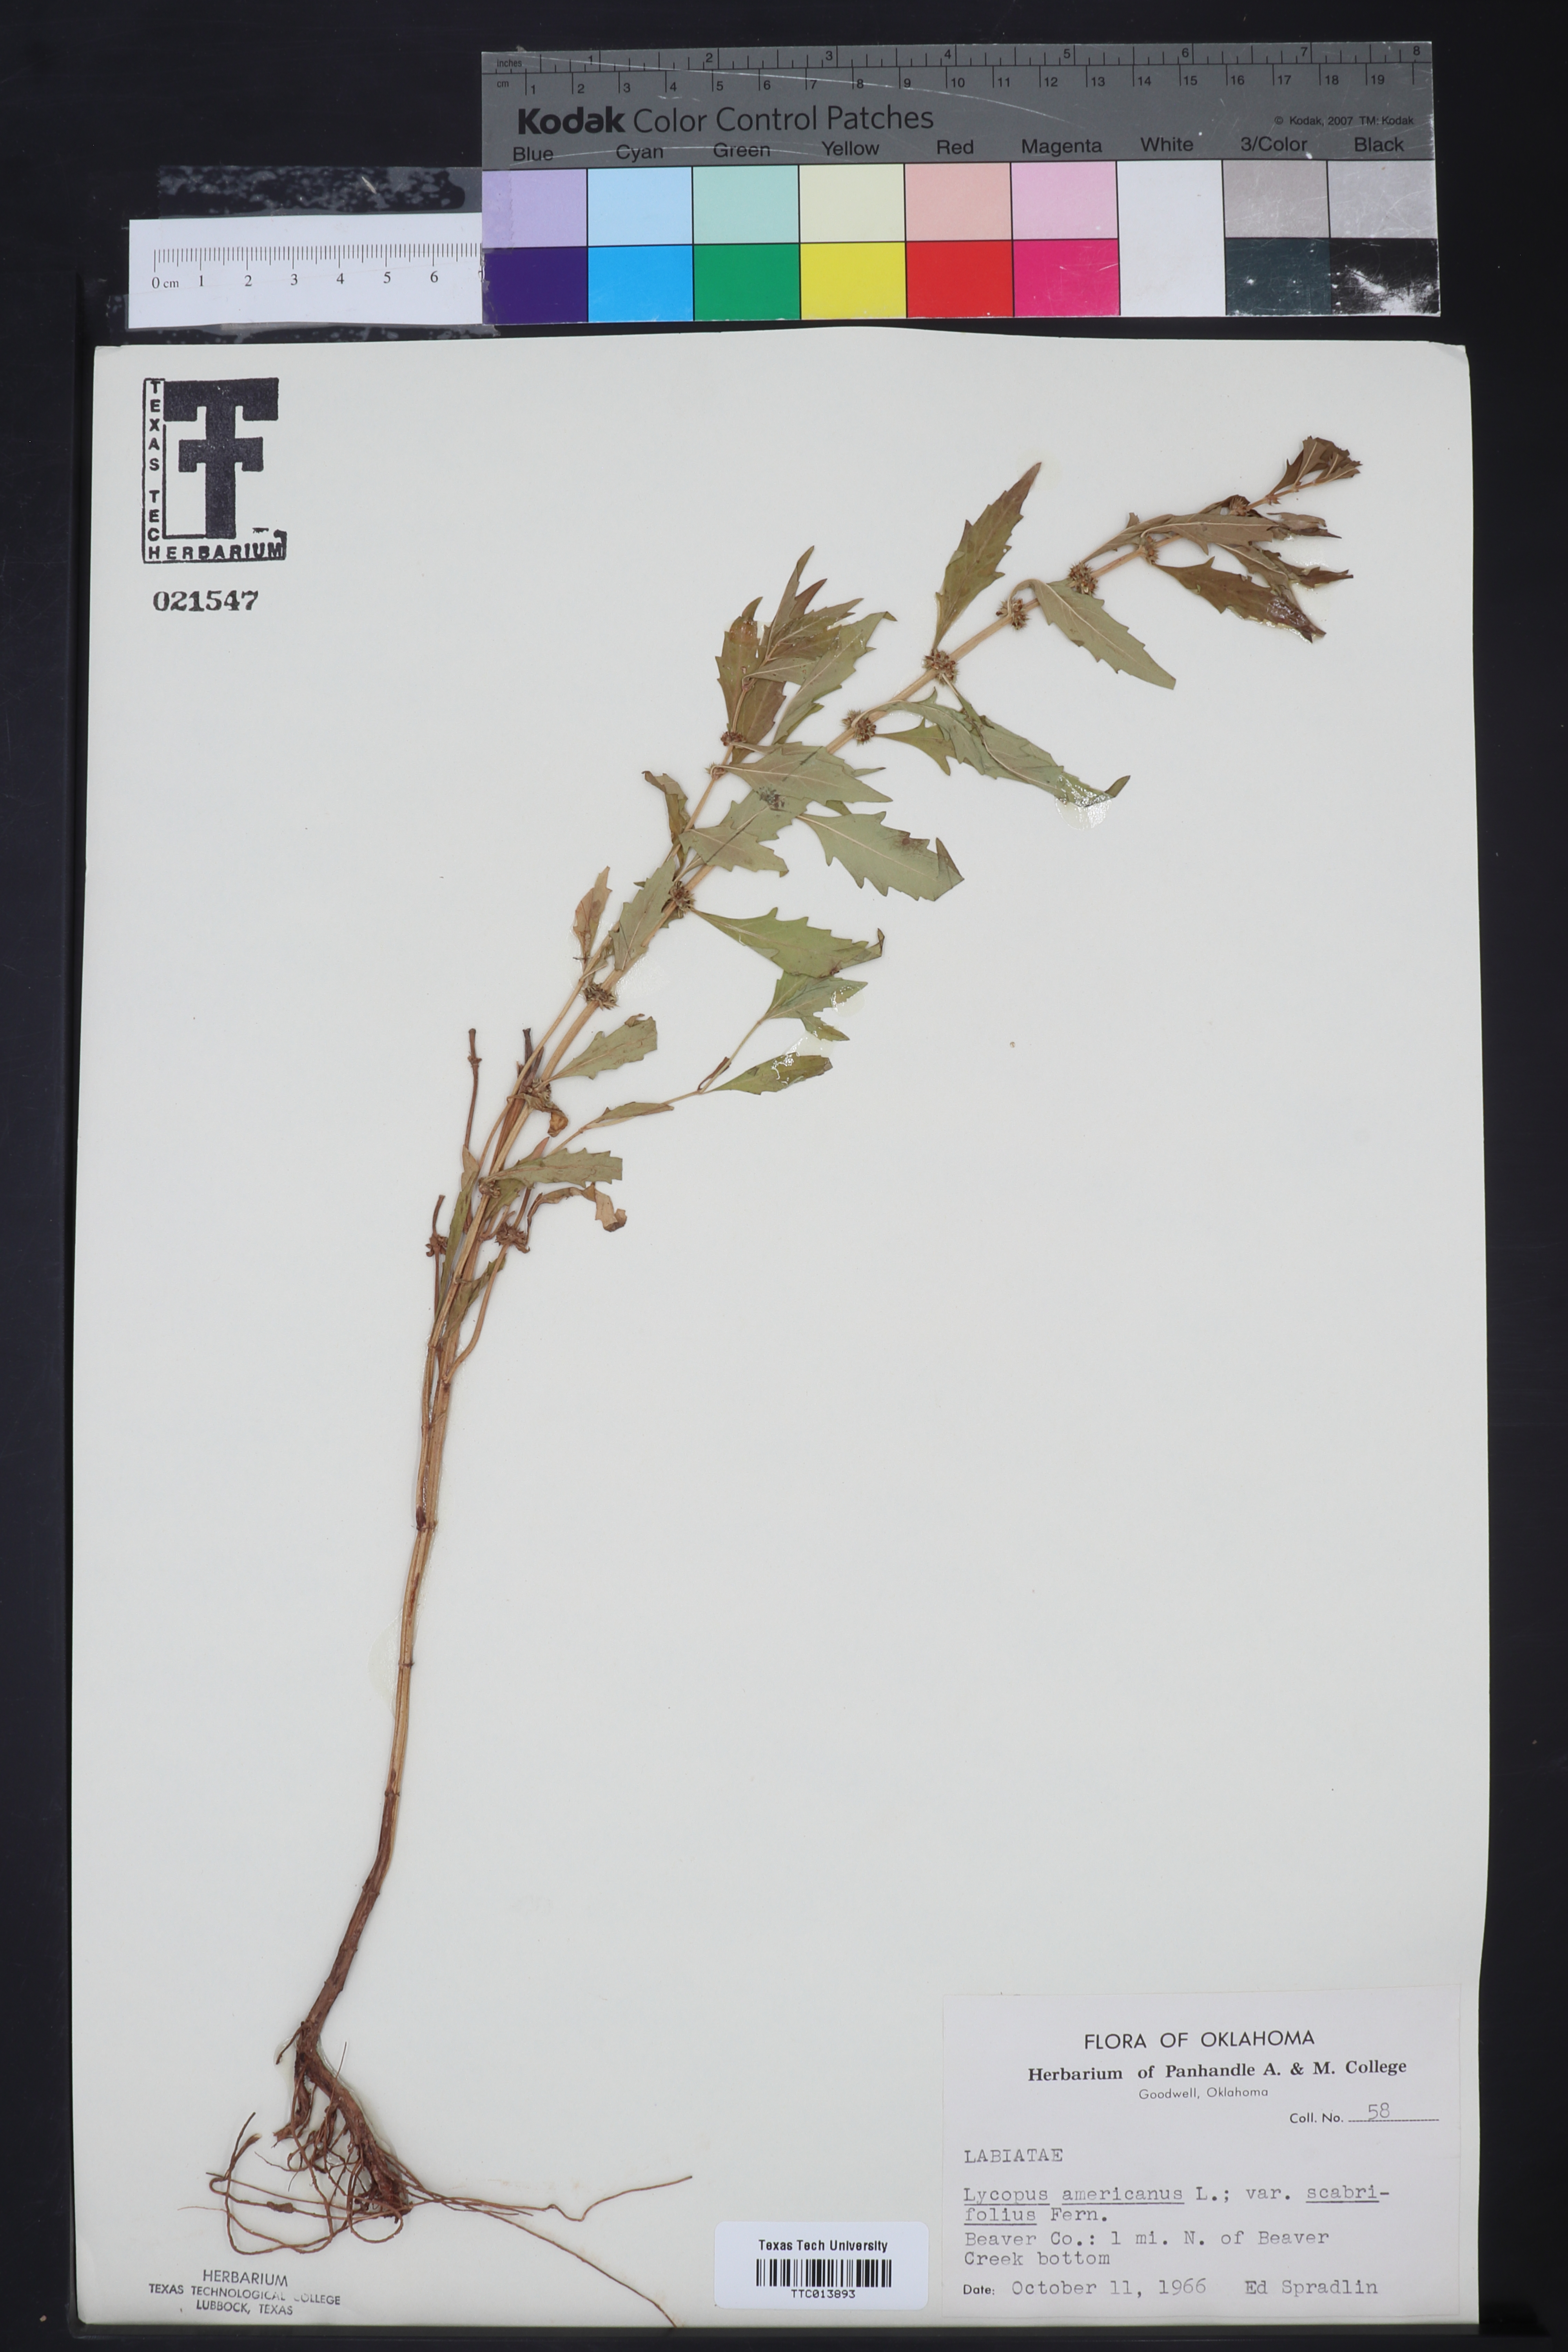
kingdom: Plantae
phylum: Tracheophyta
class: Magnoliopsida
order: Lamiales
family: Lamiaceae
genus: Lycopus
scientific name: Lycopus americanus
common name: American bugleweed
